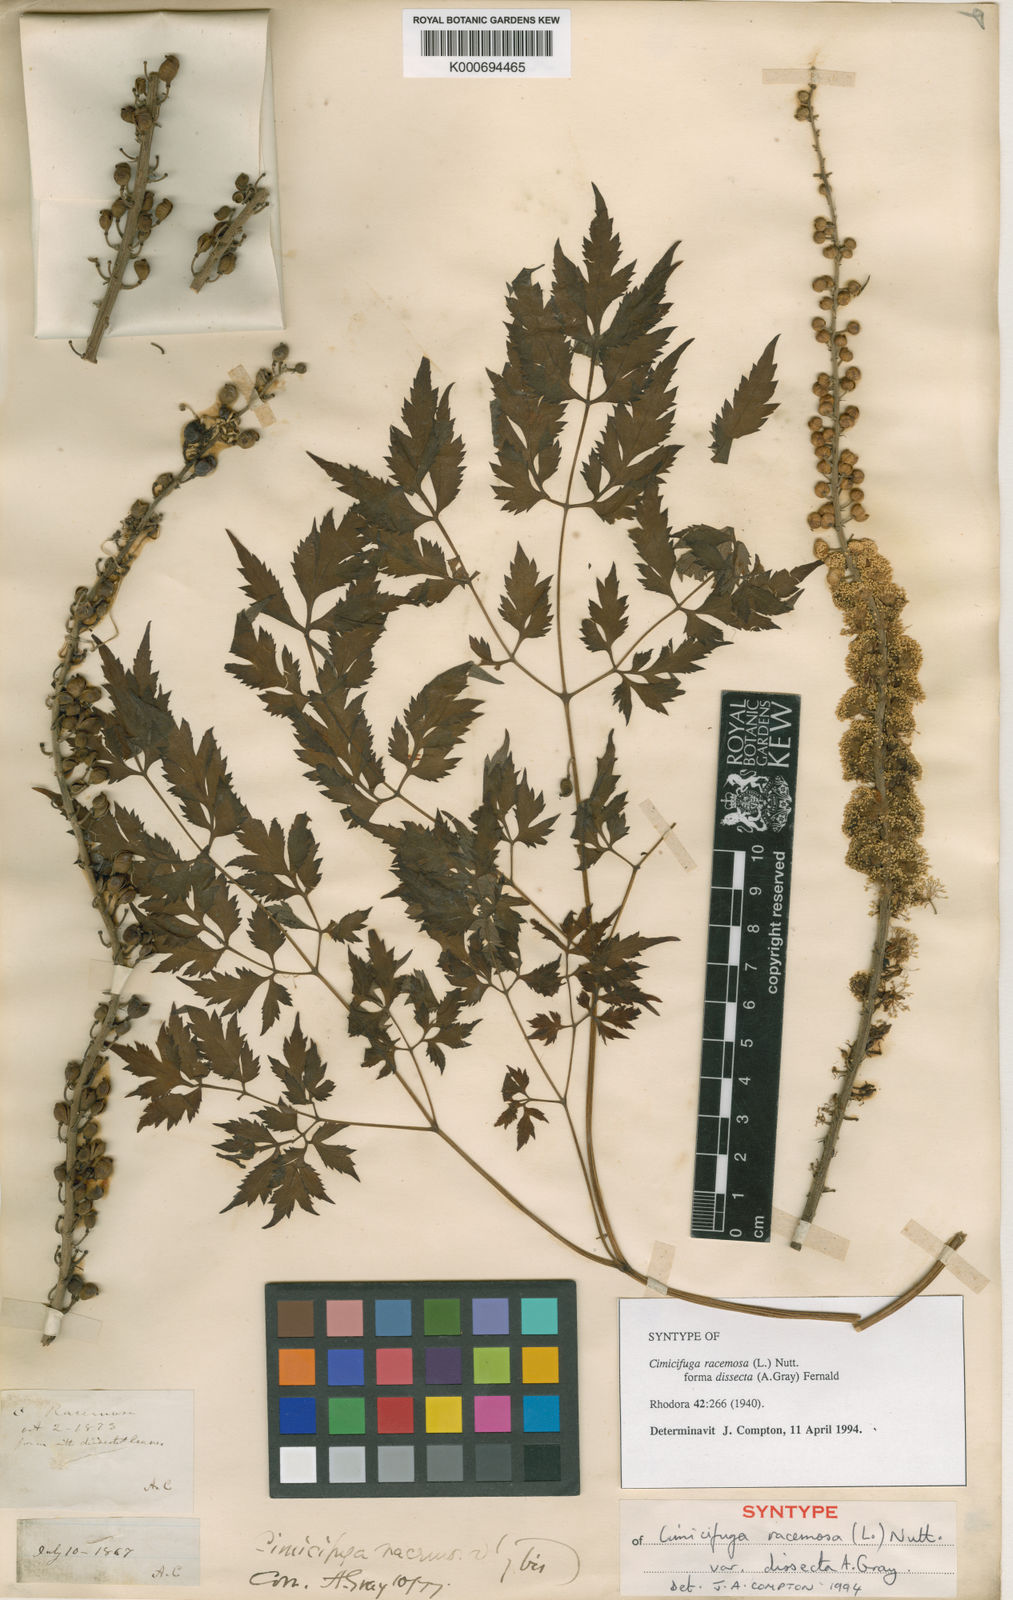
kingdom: Plantae
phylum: Tracheophyta
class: Magnoliopsida
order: Ranunculales
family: Ranunculaceae
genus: Actaea
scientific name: Actaea racemosa
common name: Black cohosh
